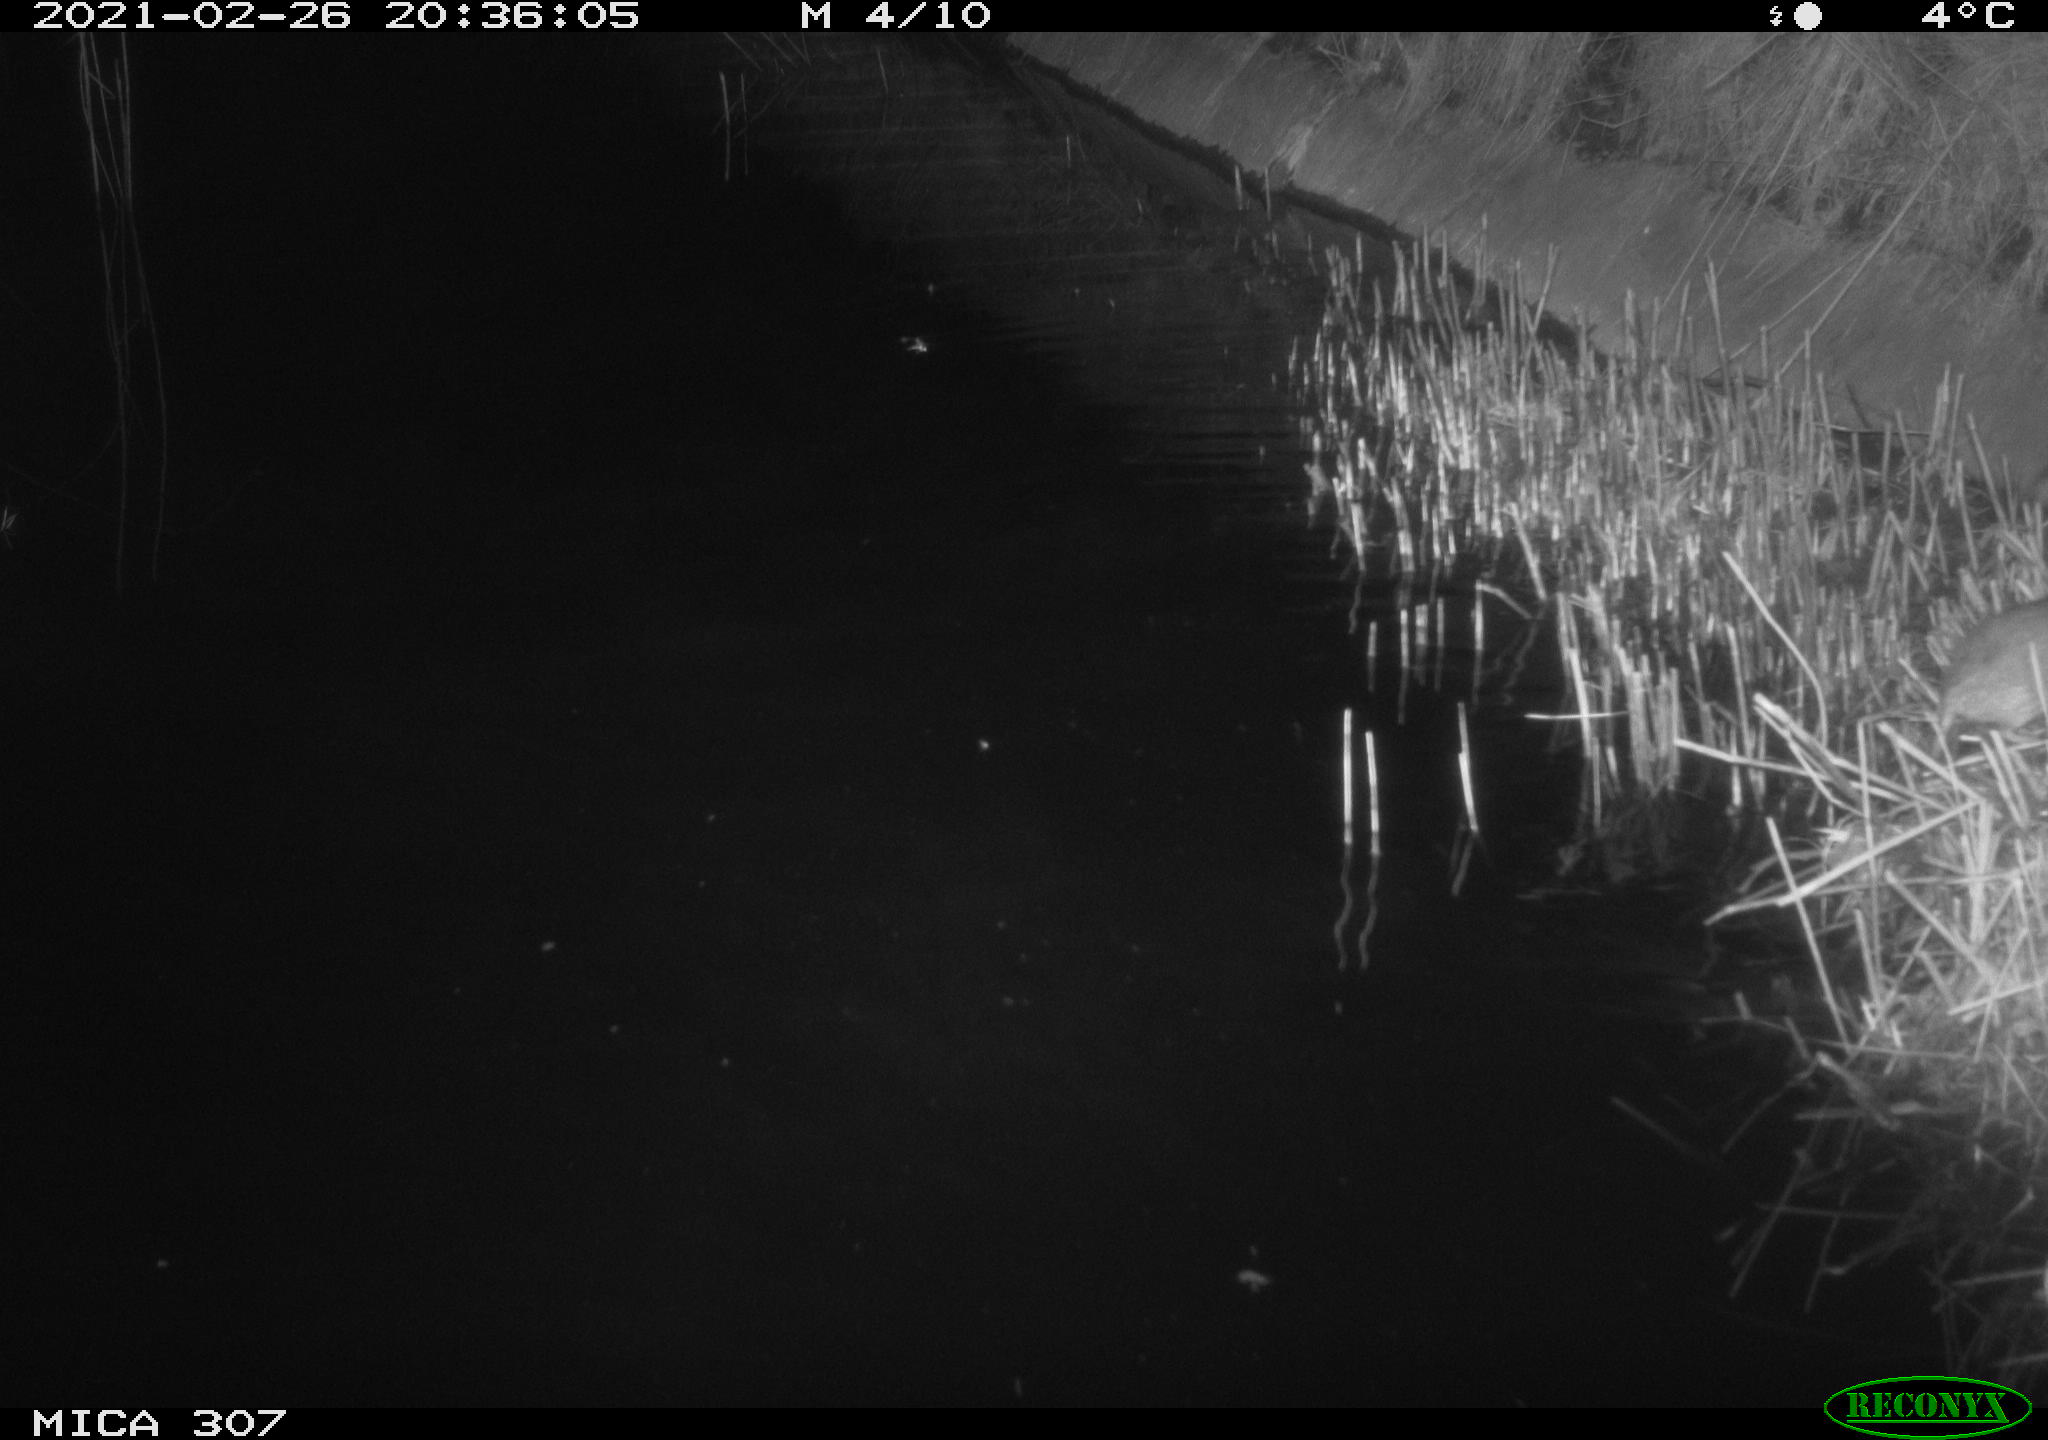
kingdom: Animalia
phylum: Chordata
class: Mammalia
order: Rodentia
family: Muridae
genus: Rattus
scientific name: Rattus norvegicus
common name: Brown rat
